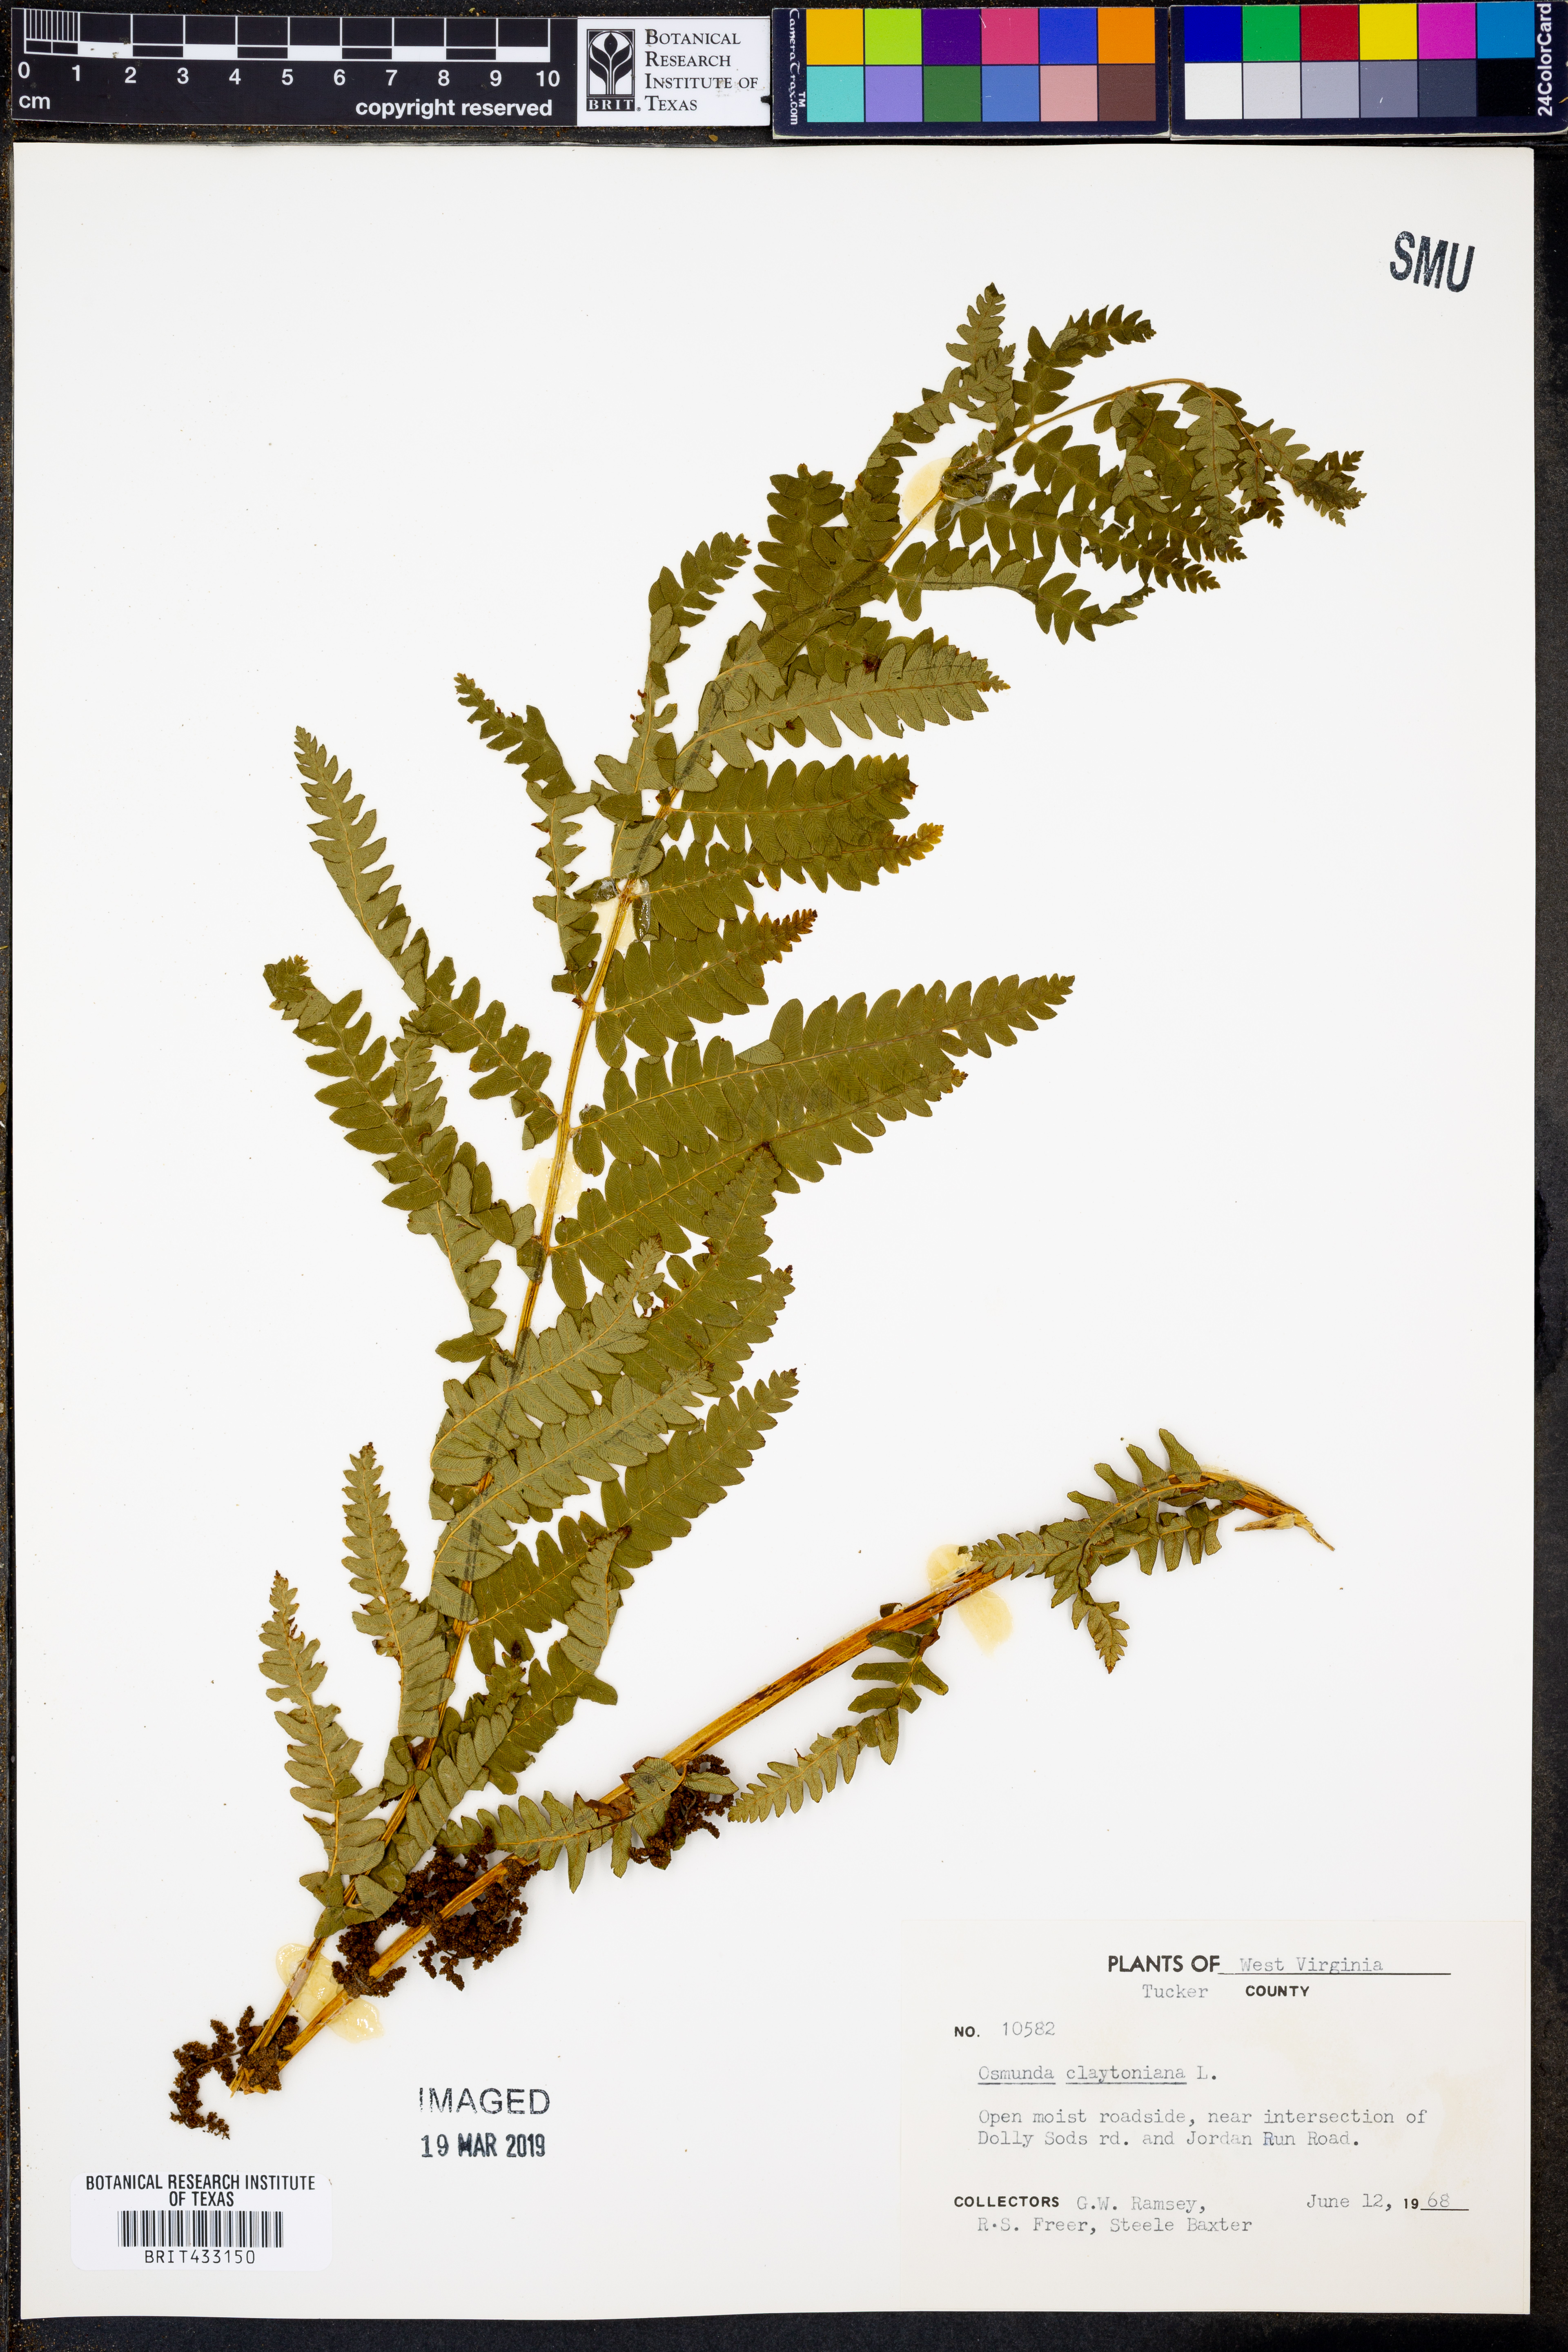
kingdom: Plantae
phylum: Tracheophyta
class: Polypodiopsida
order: Osmundales
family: Osmundaceae
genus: Claytosmunda
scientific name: Claytosmunda claytoniana
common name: Clayton's fern
